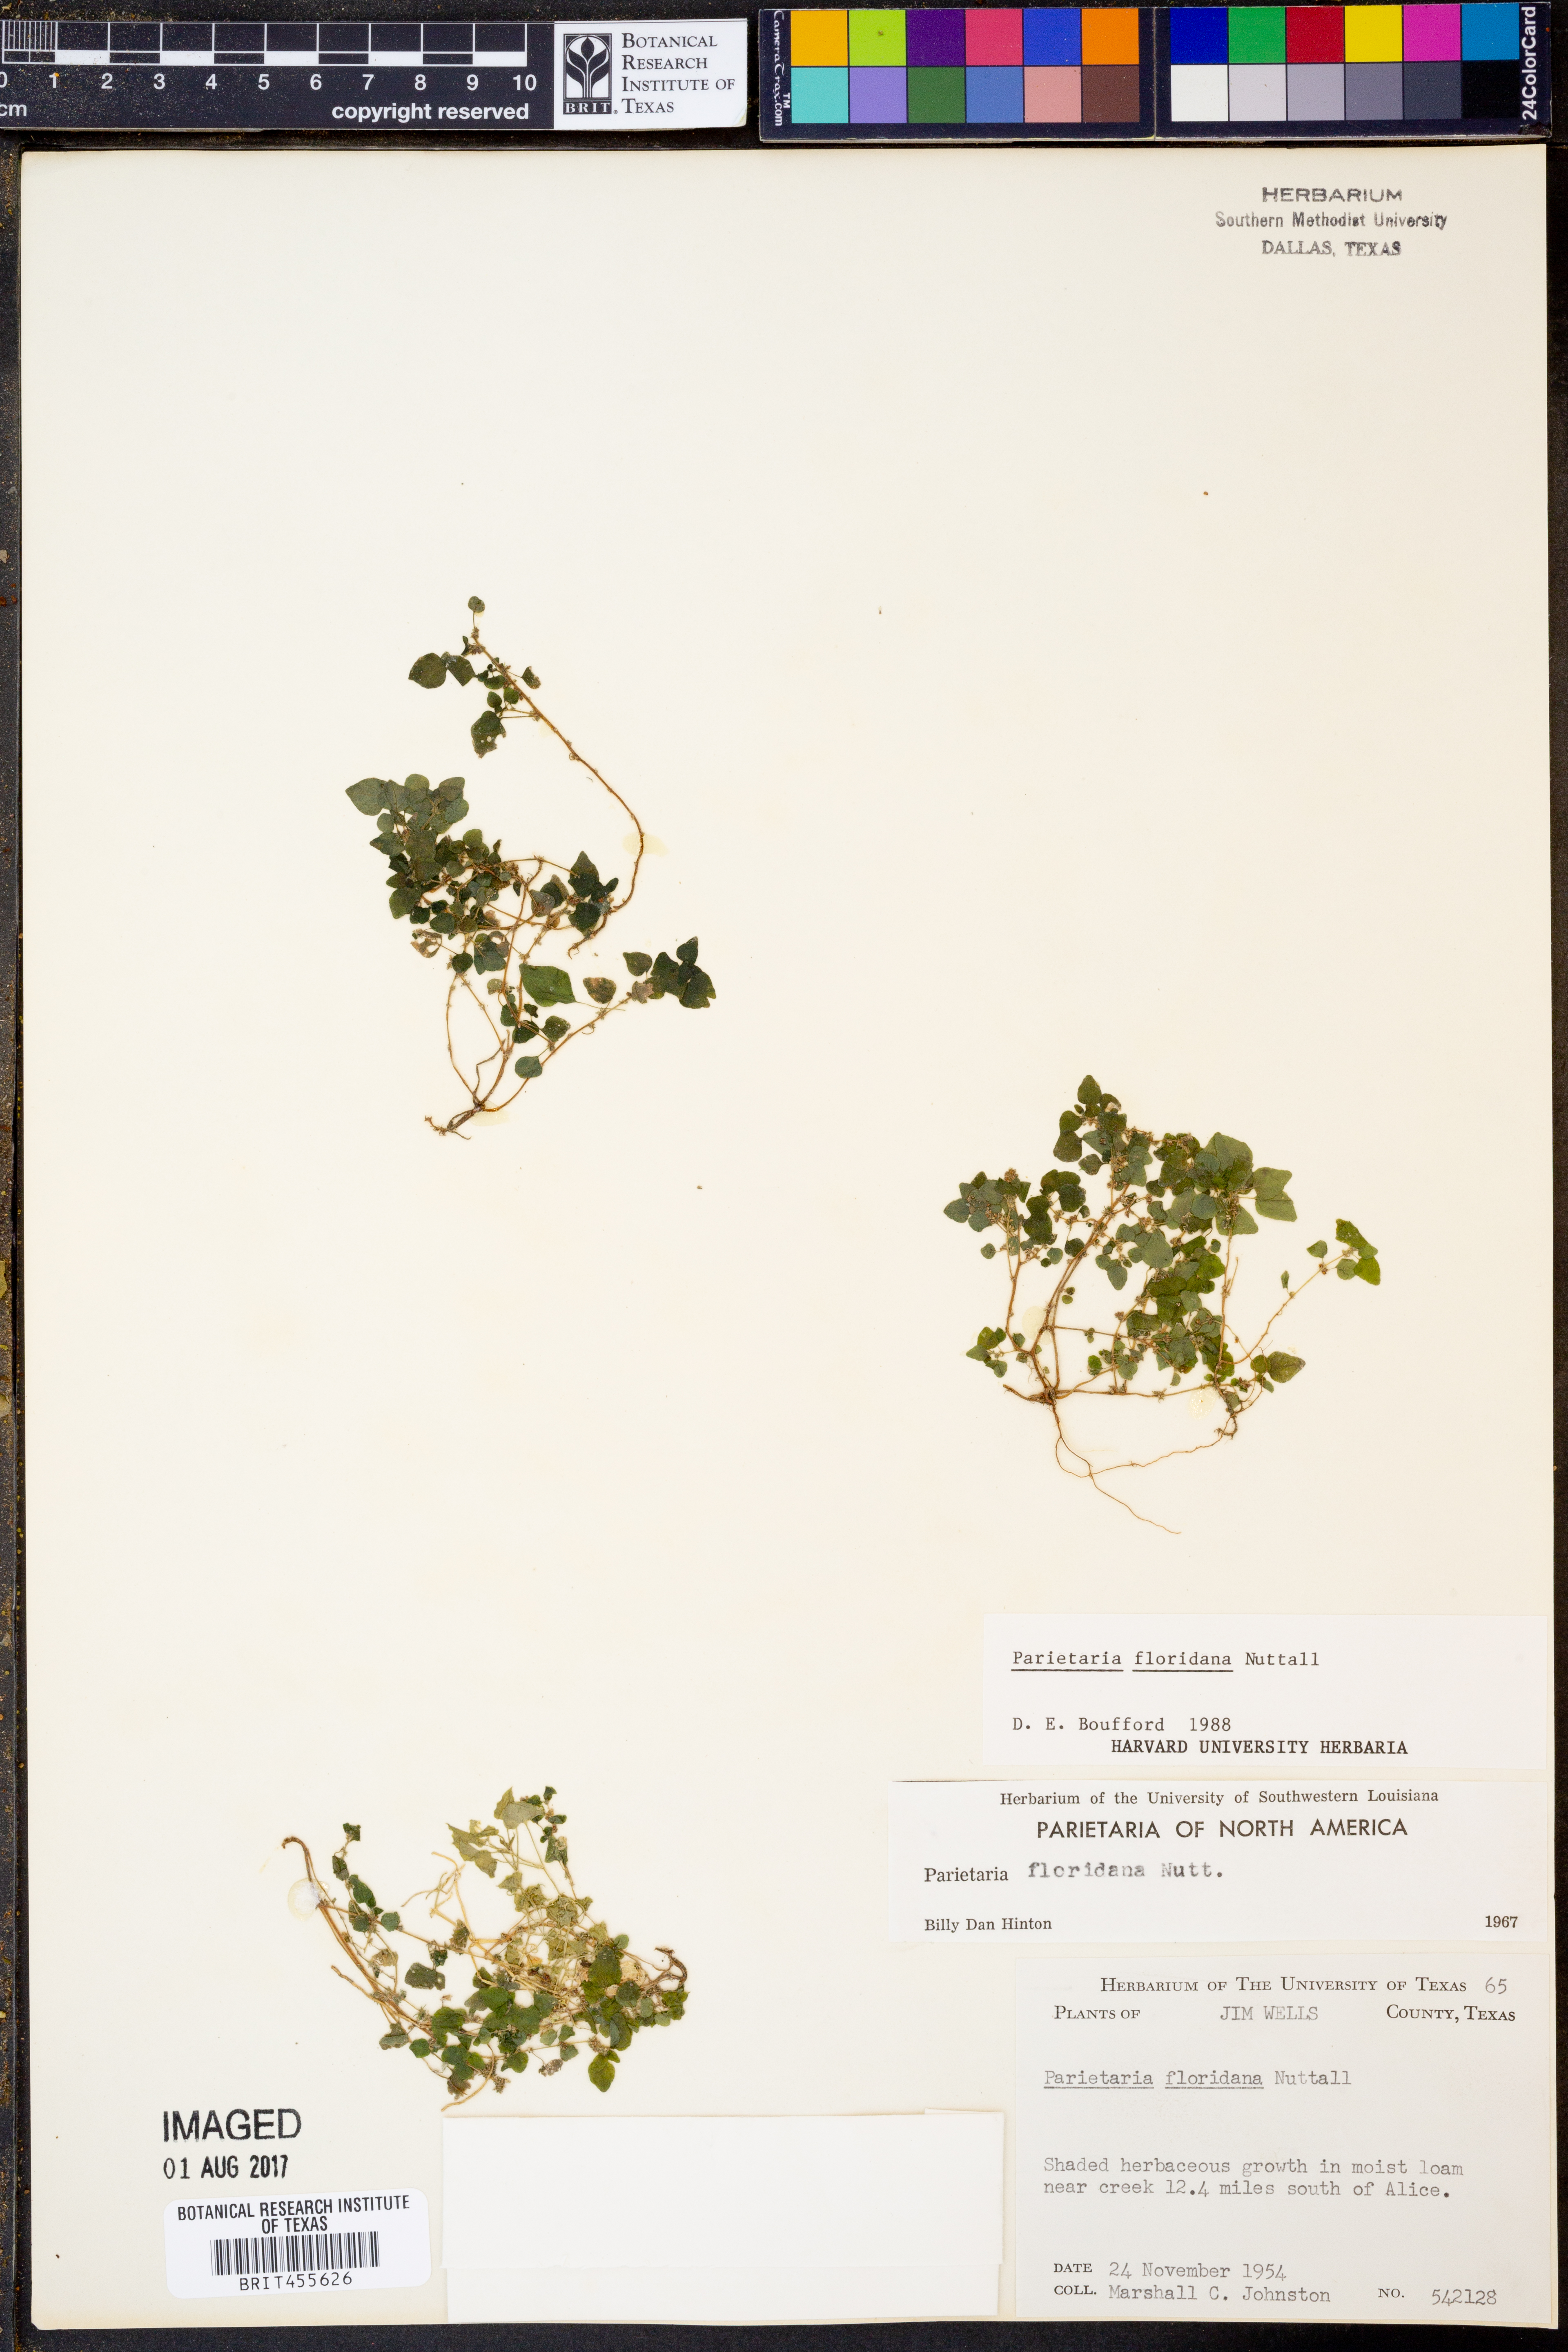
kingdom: Plantae
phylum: Tracheophyta
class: Magnoliopsida
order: Rosales
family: Urticaceae
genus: Parietaria
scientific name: Parietaria floridana
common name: Florida pellitory
